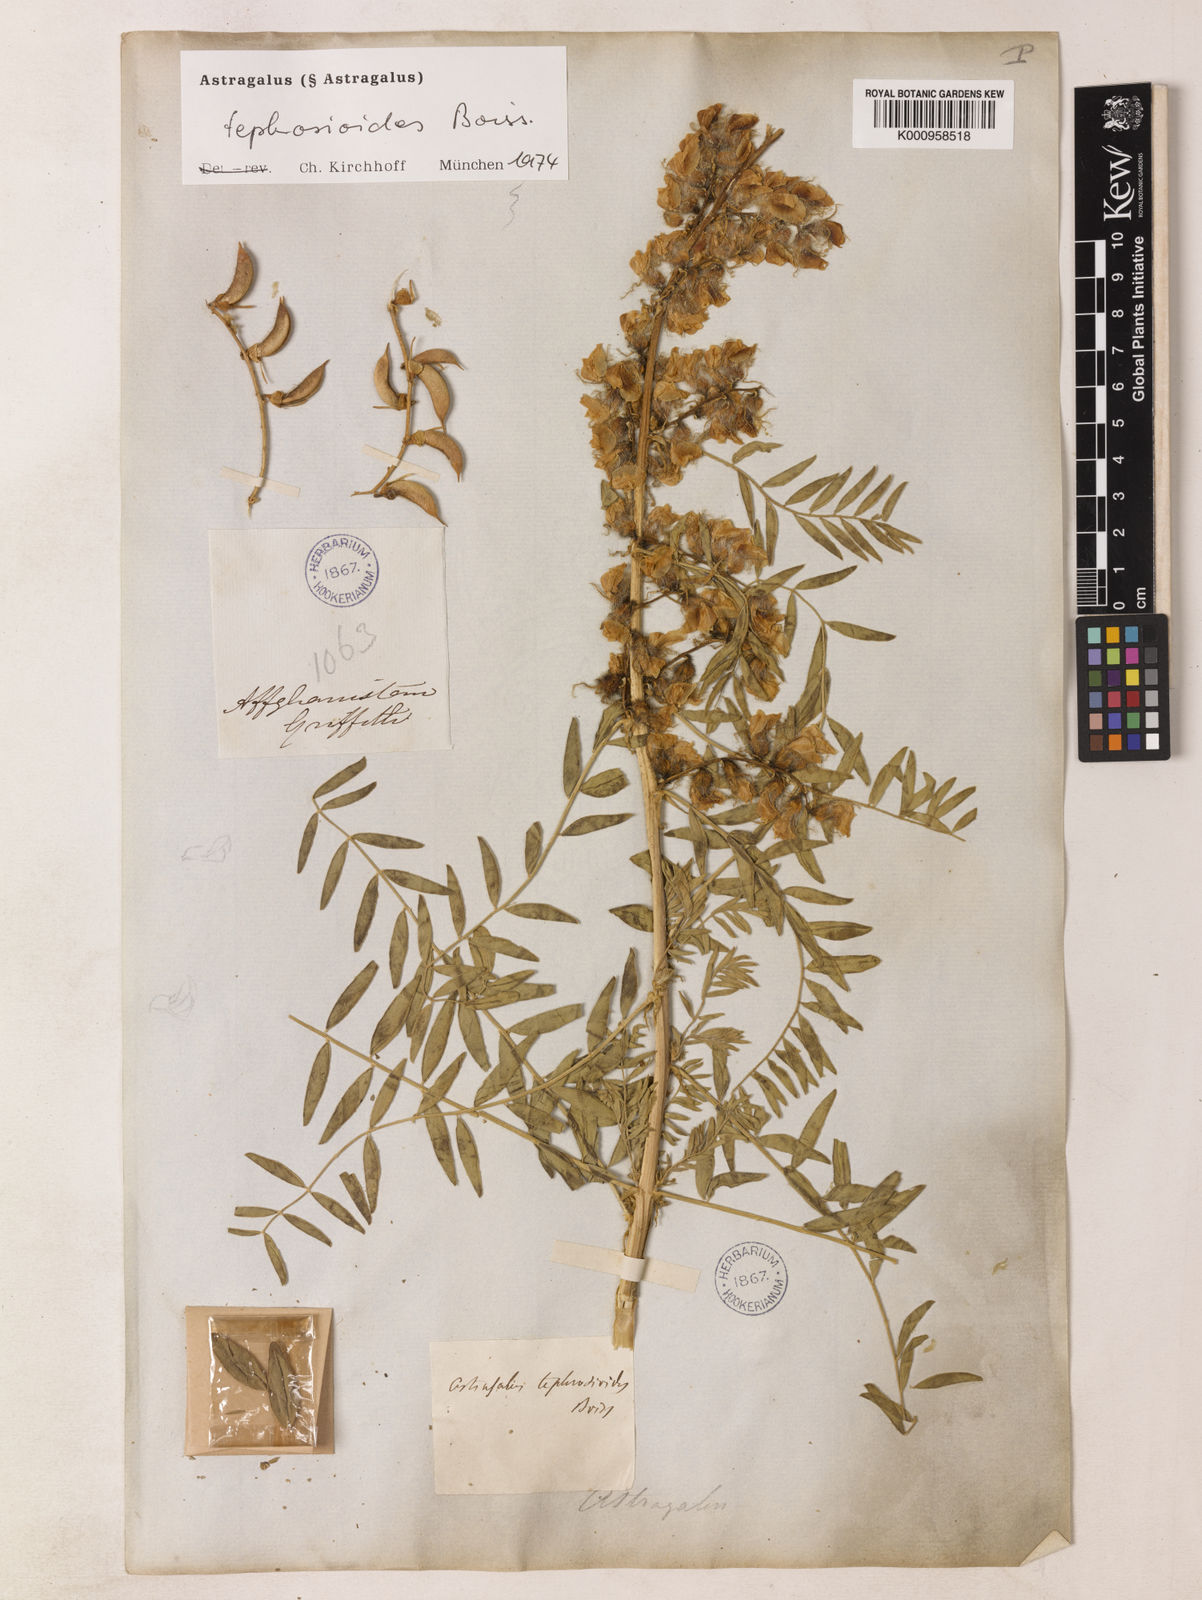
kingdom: Plantae
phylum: Tracheophyta
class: Magnoliopsida
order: Fabales
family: Fabaceae
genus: Astragalus
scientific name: Astragalus
